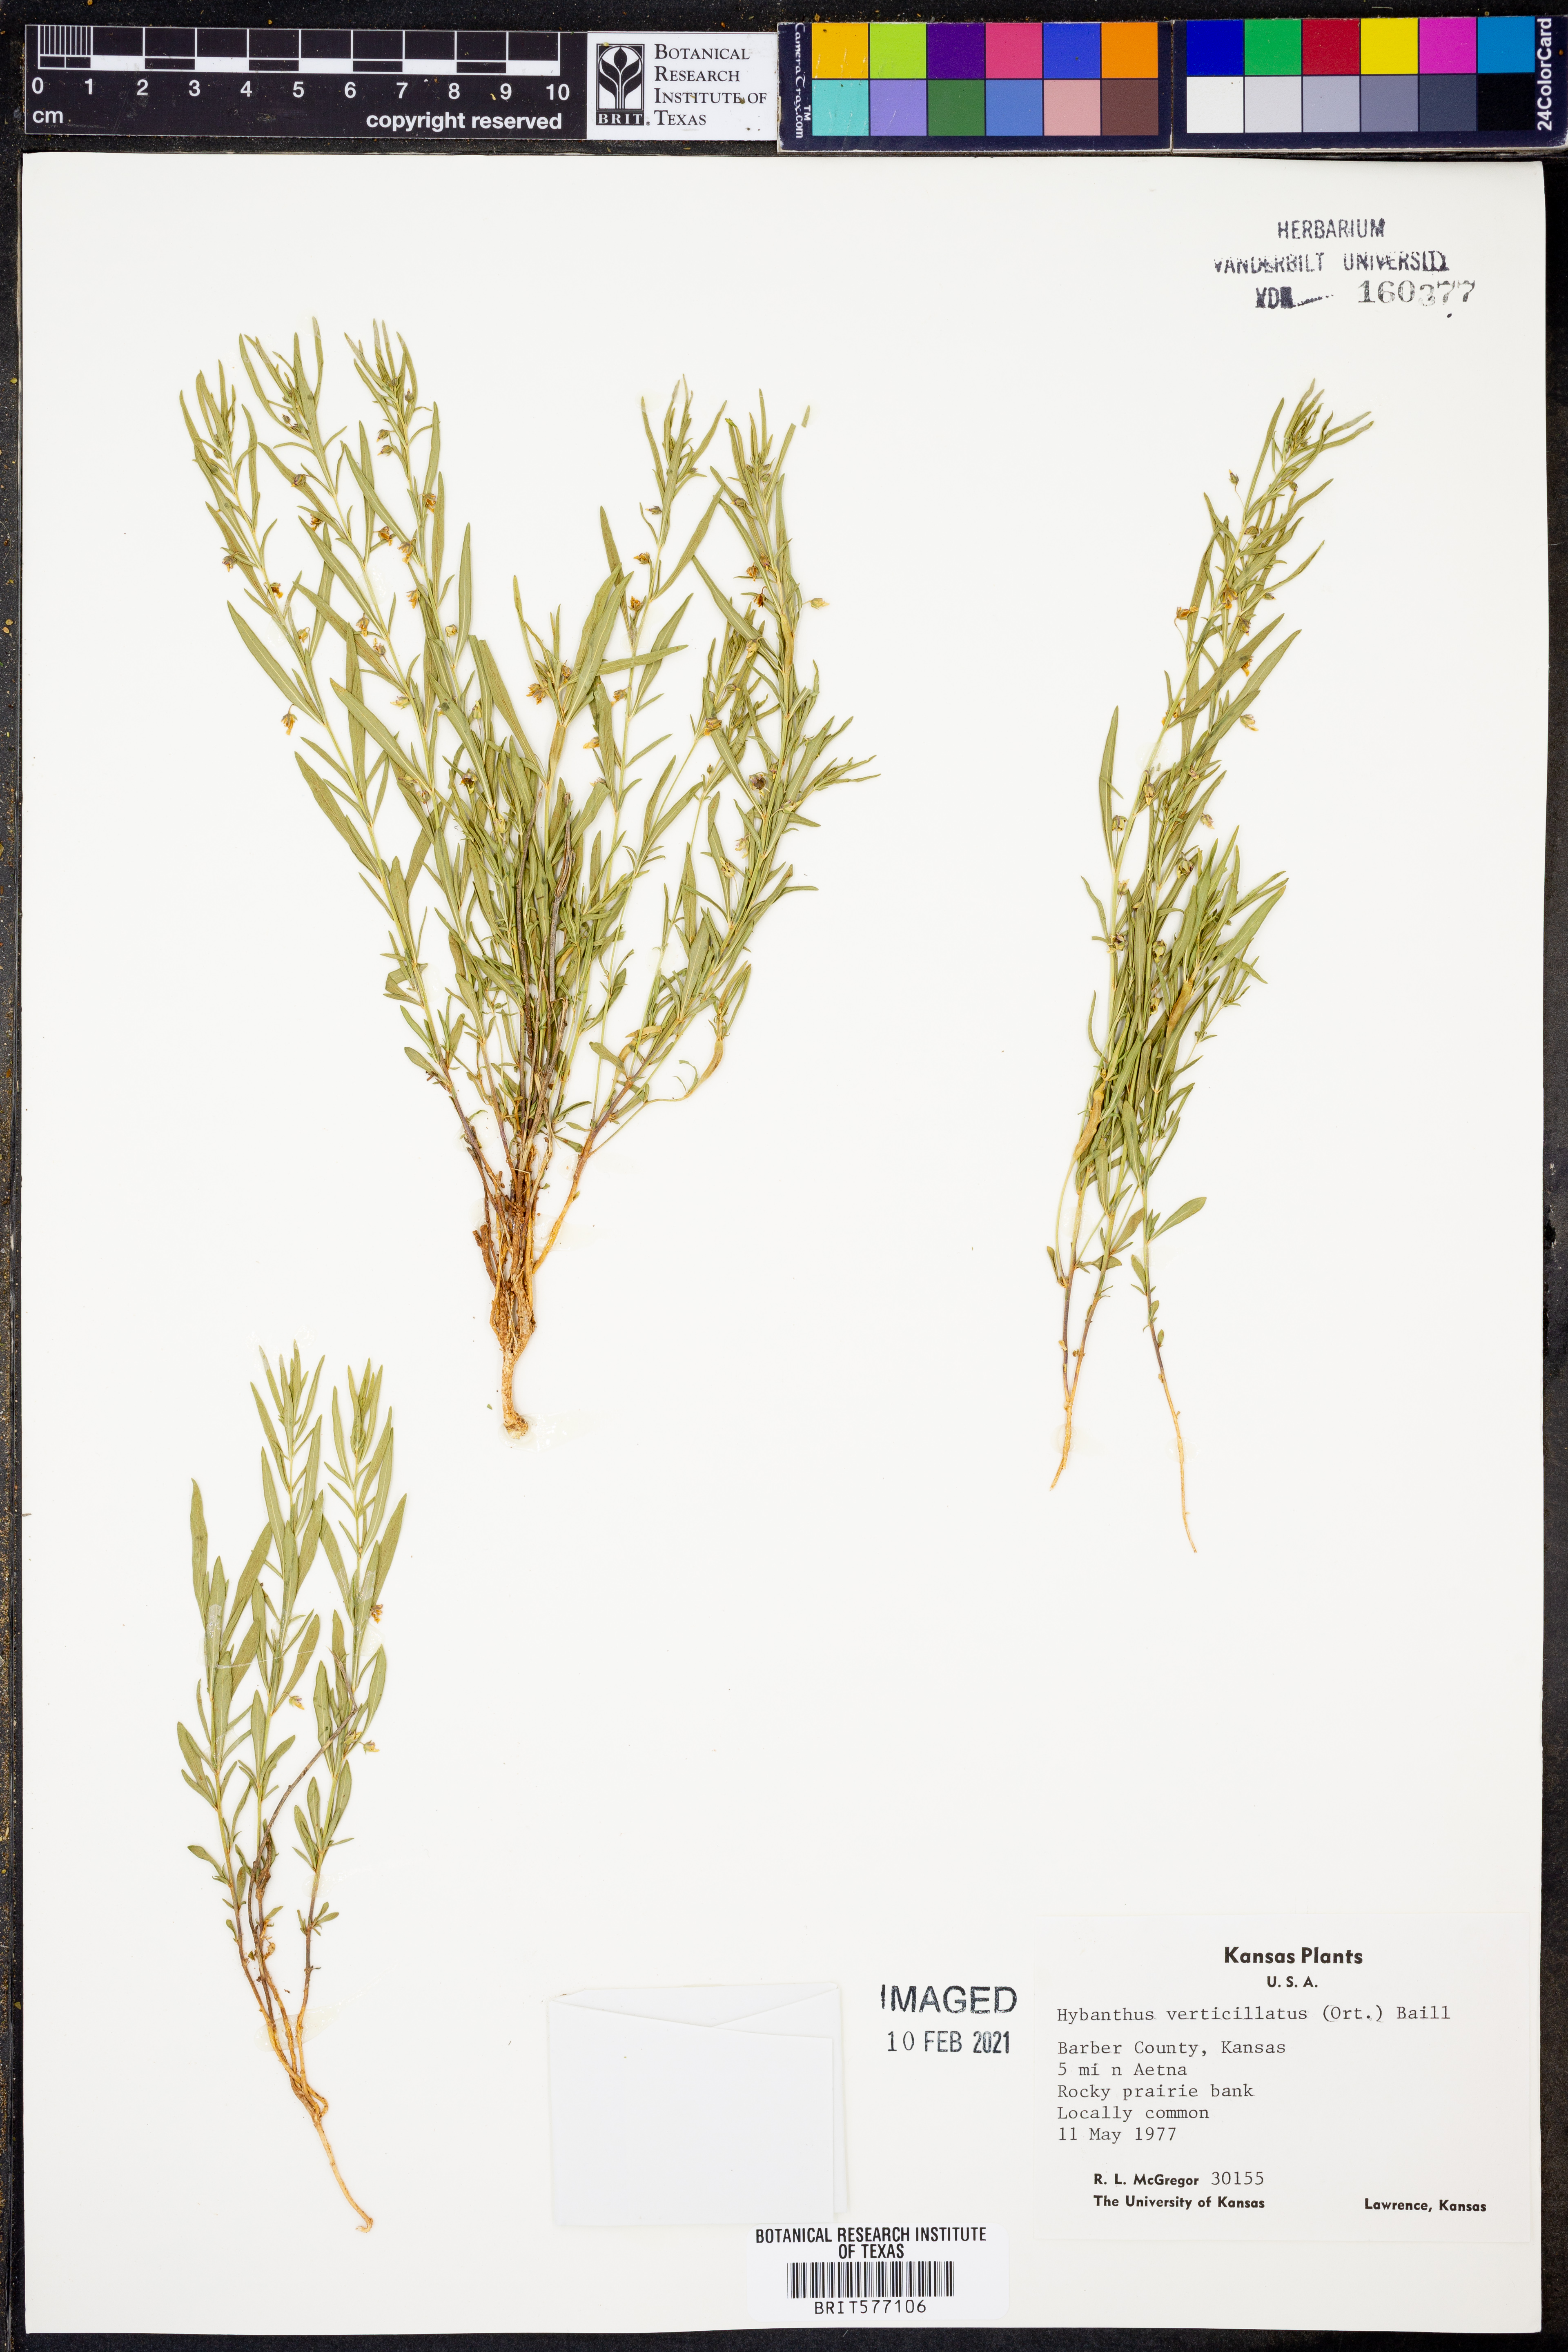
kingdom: Plantae
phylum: Tracheophyta
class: Magnoliopsida
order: Malpighiales
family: Violaceae
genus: Pombalia
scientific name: Pombalia verticillata
